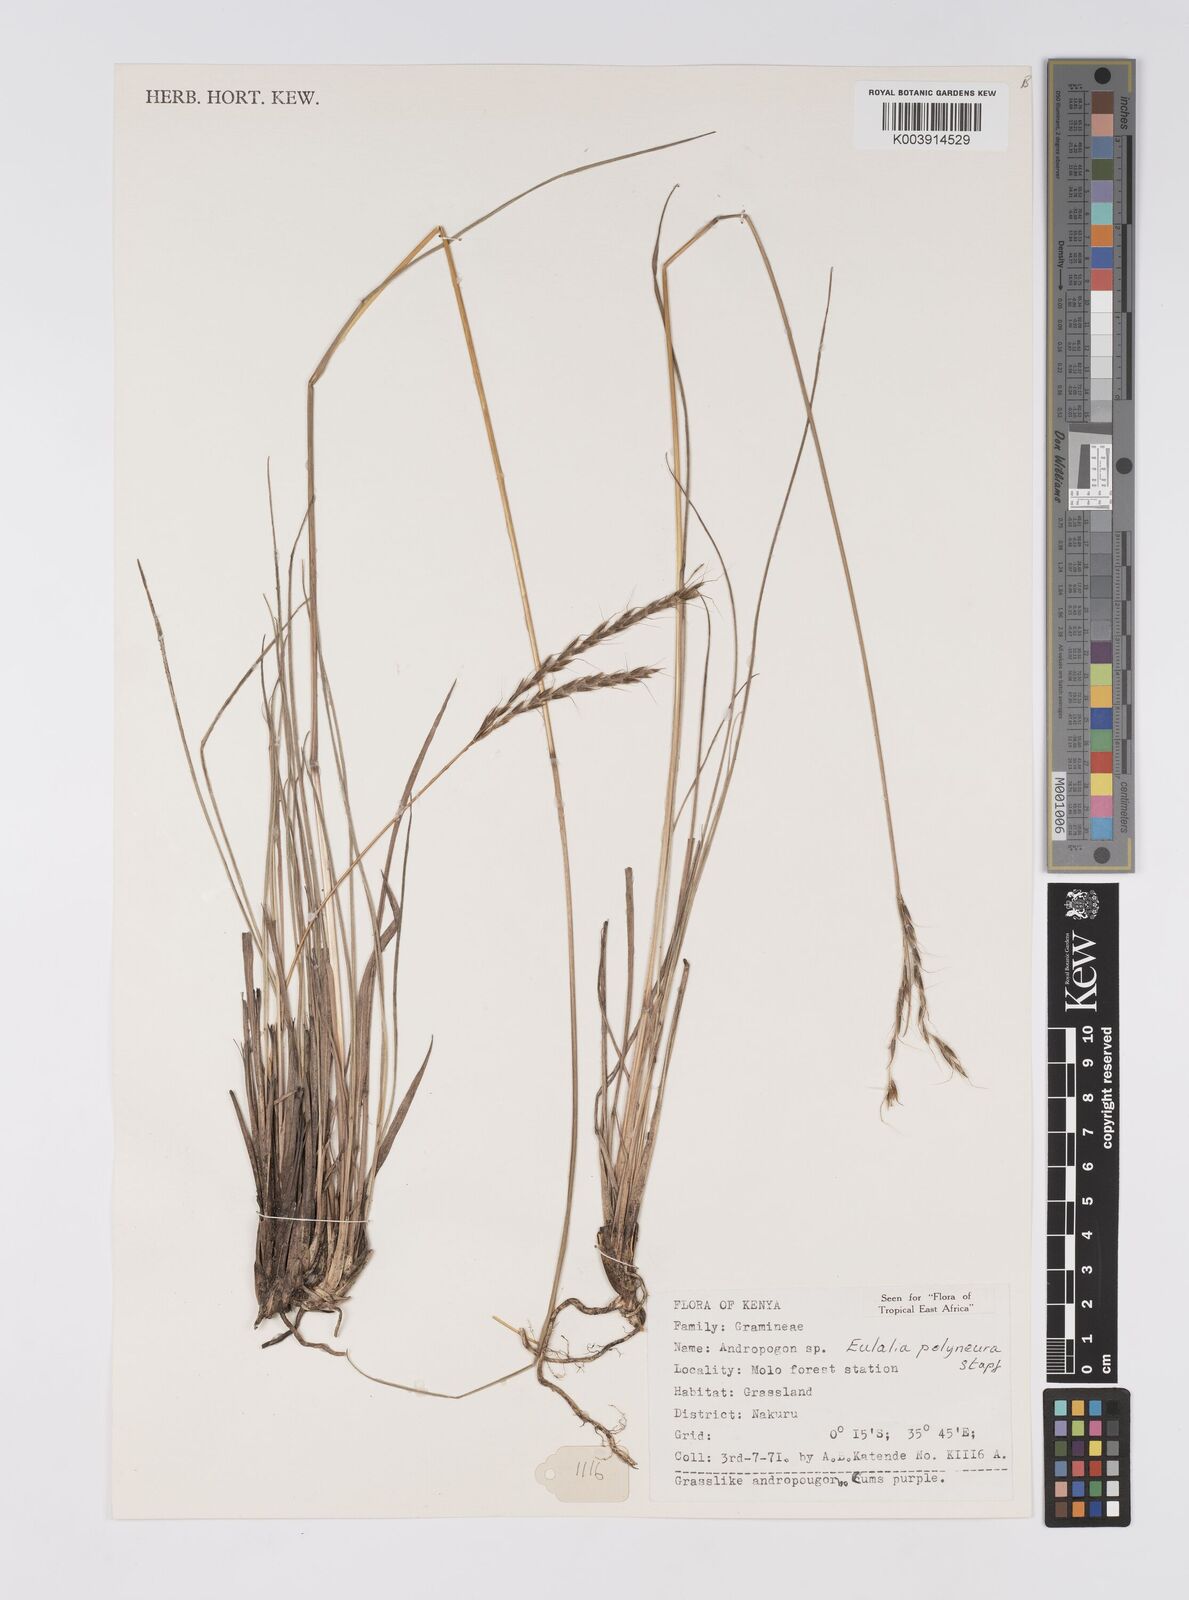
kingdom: Plantae
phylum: Tracheophyta
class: Liliopsida
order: Poales
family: Poaceae
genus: Eulalia
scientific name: Eulalia polyneura
